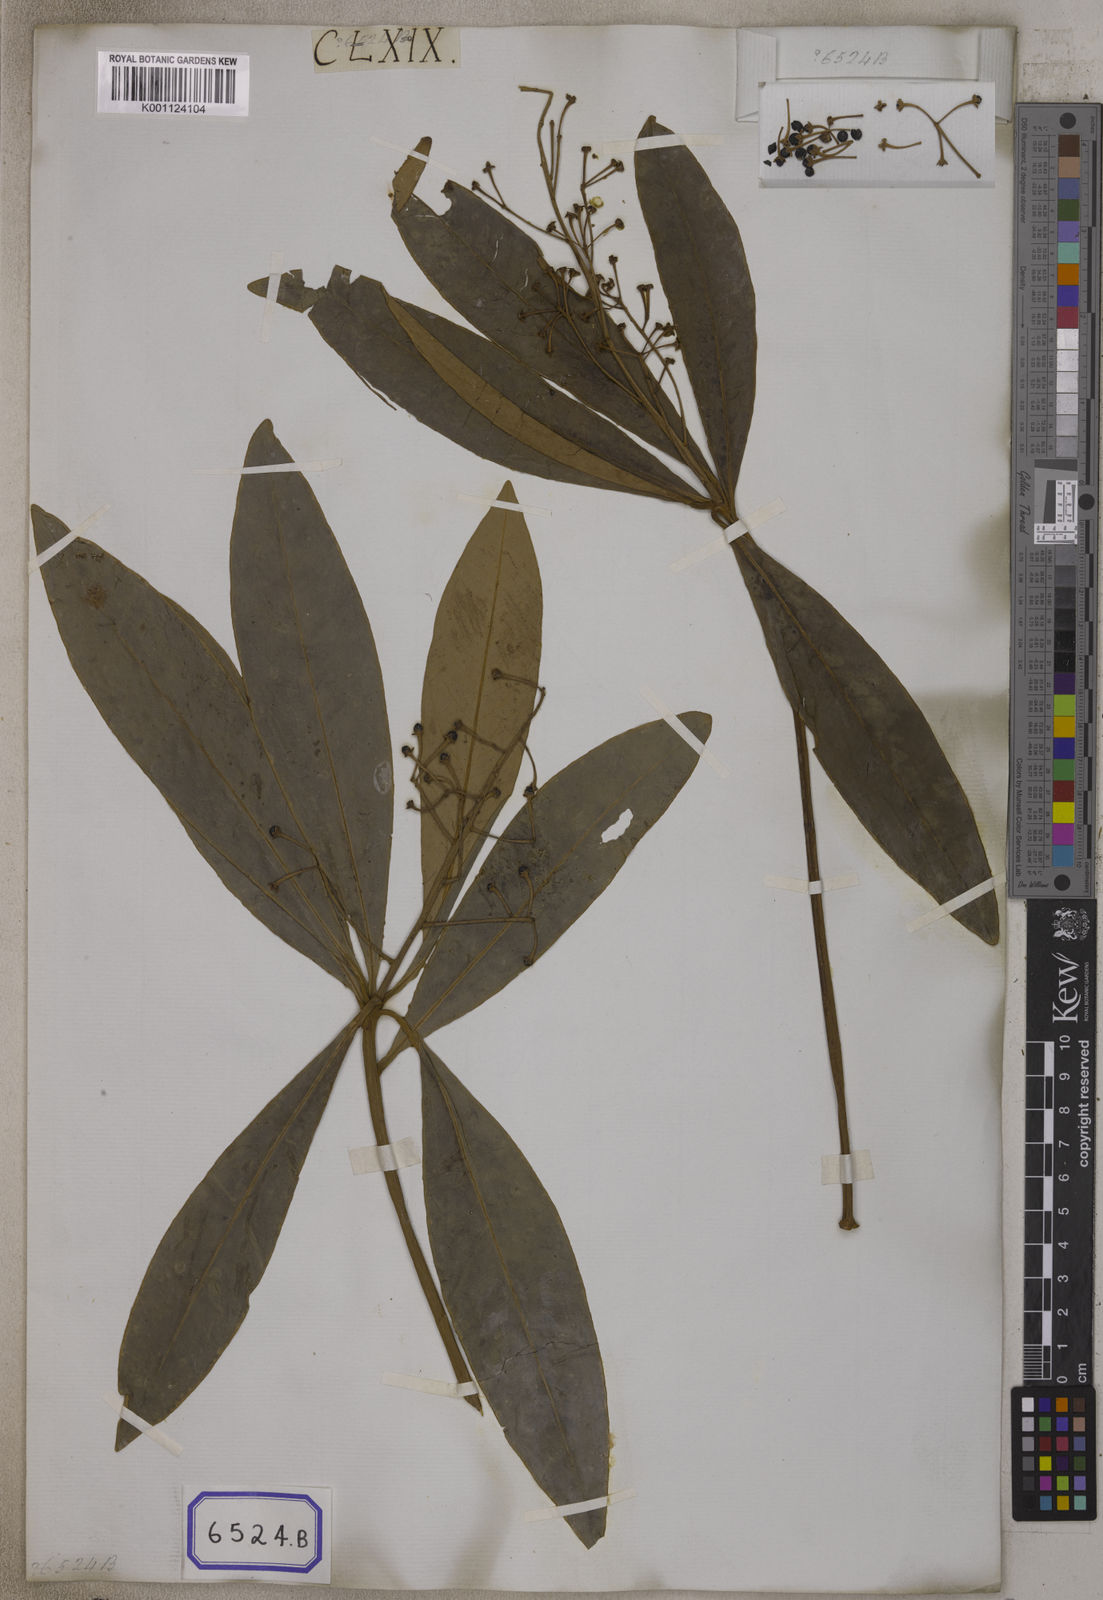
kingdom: Plantae
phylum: Tracheophyta
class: Magnoliopsida
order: Ericales
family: Primulaceae
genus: Ardisia
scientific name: Ardisia
